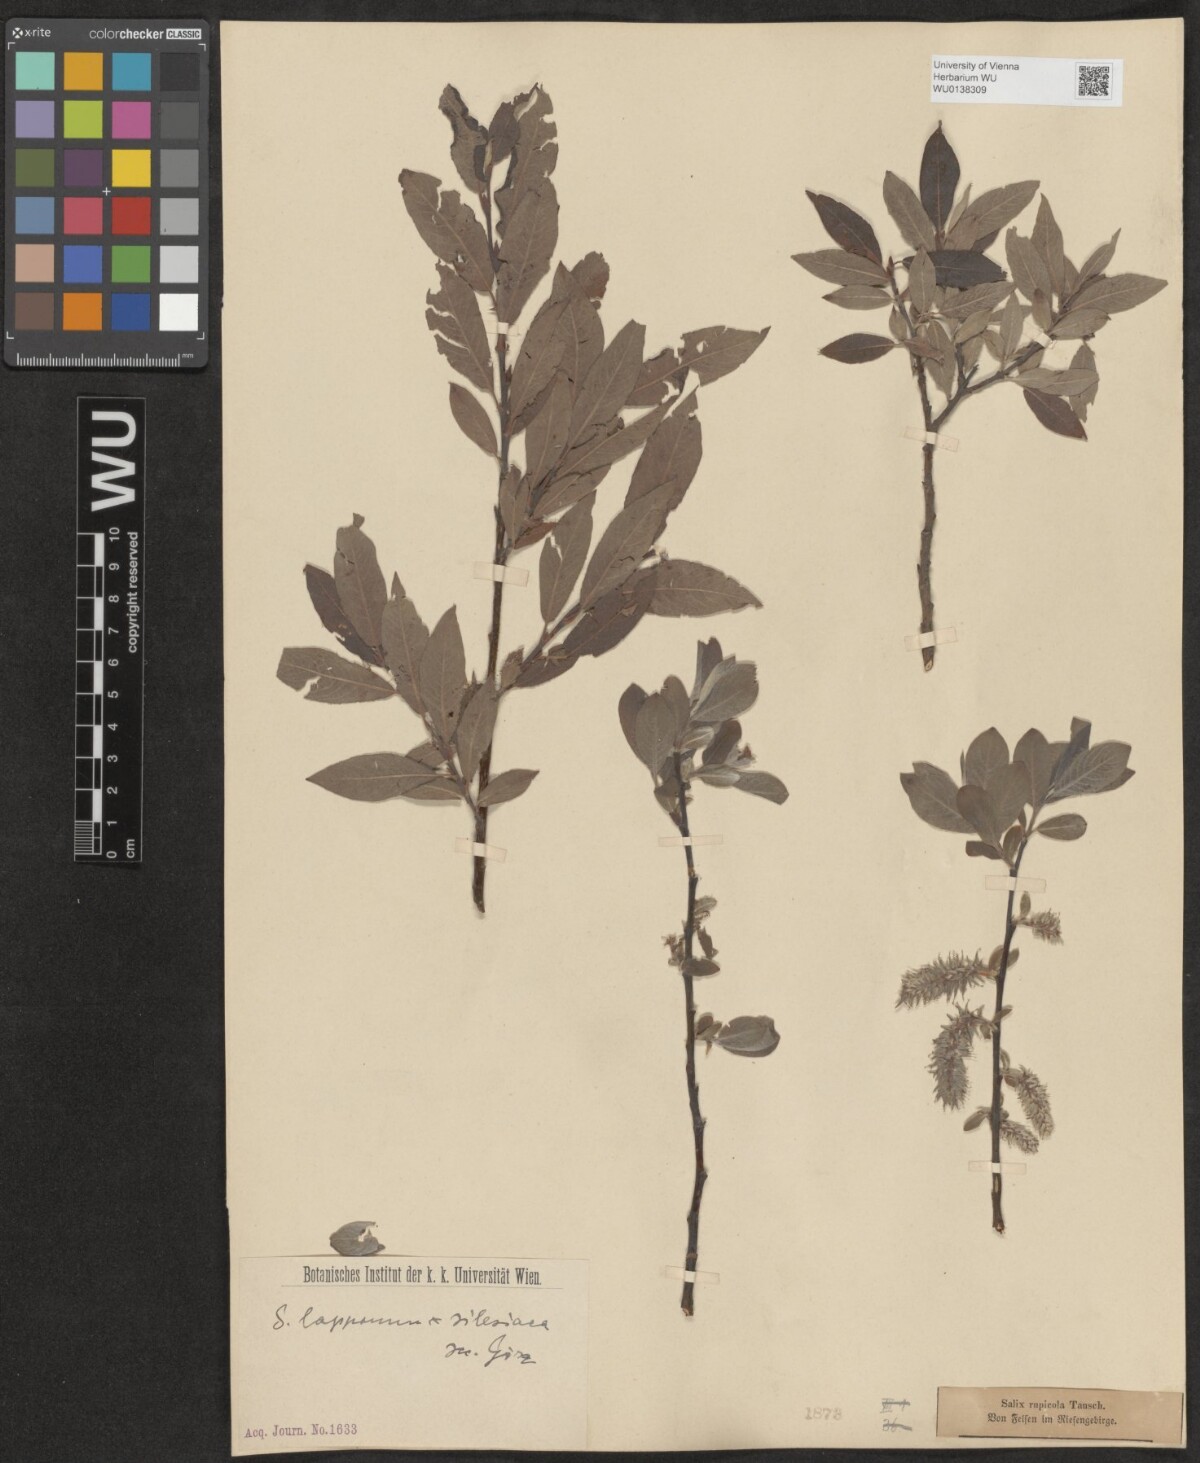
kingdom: Plantae
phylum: Tracheophyta
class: Magnoliopsida
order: Malpighiales
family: Salicaceae
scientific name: Salicaceae
